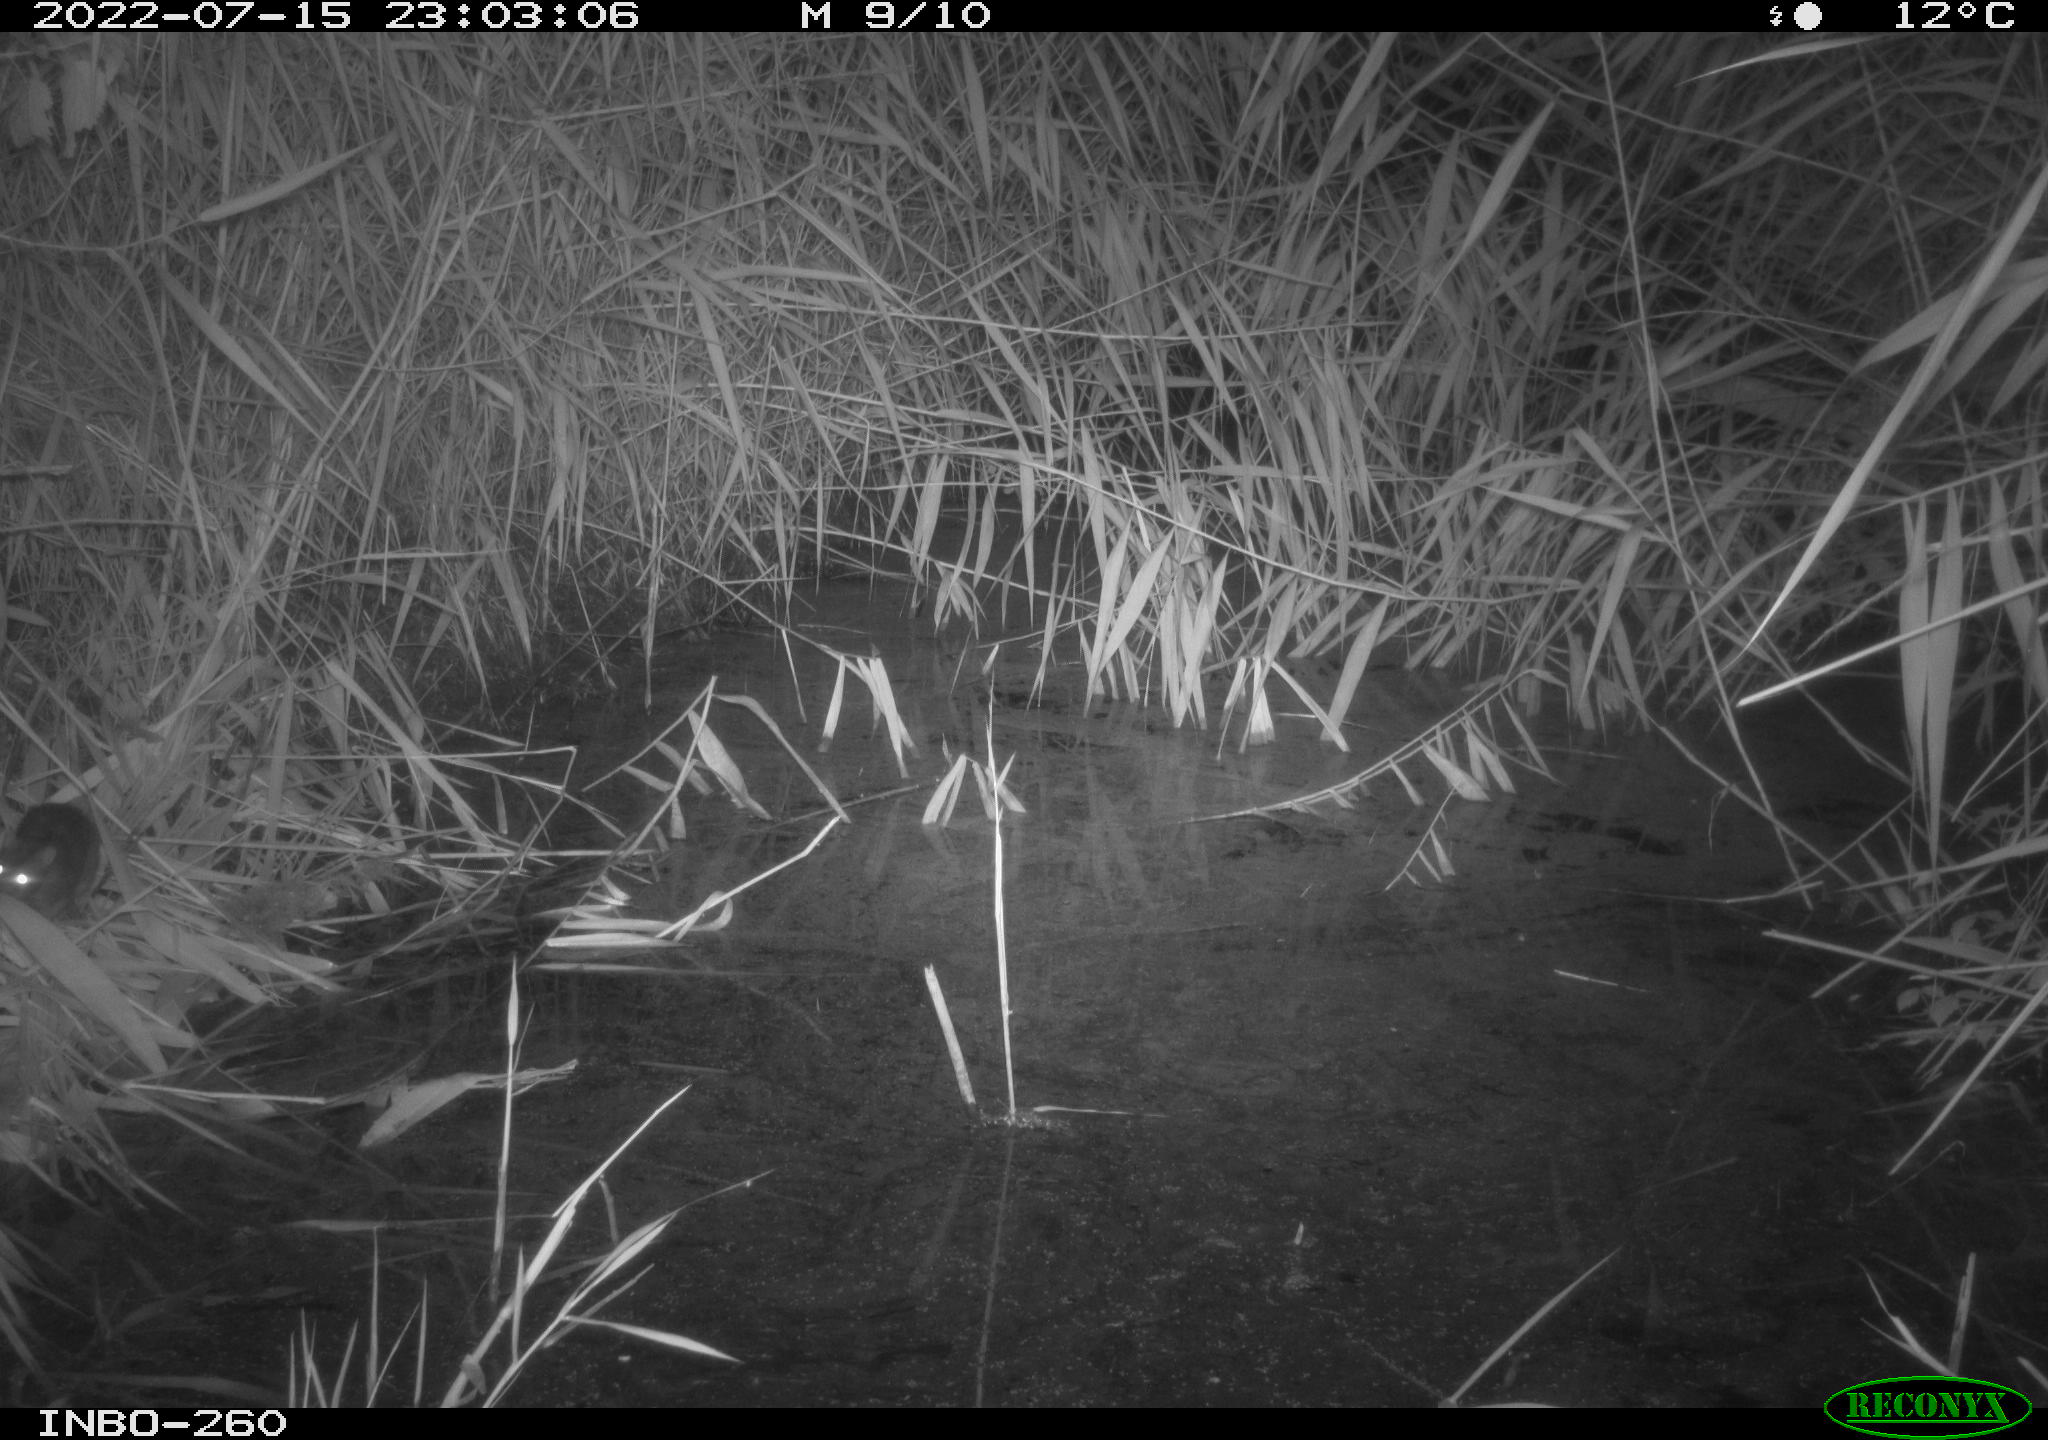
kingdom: Animalia
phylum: Chordata
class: Mammalia
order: Rodentia
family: Muridae
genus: Rattus
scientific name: Rattus norvegicus
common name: Brown rat
